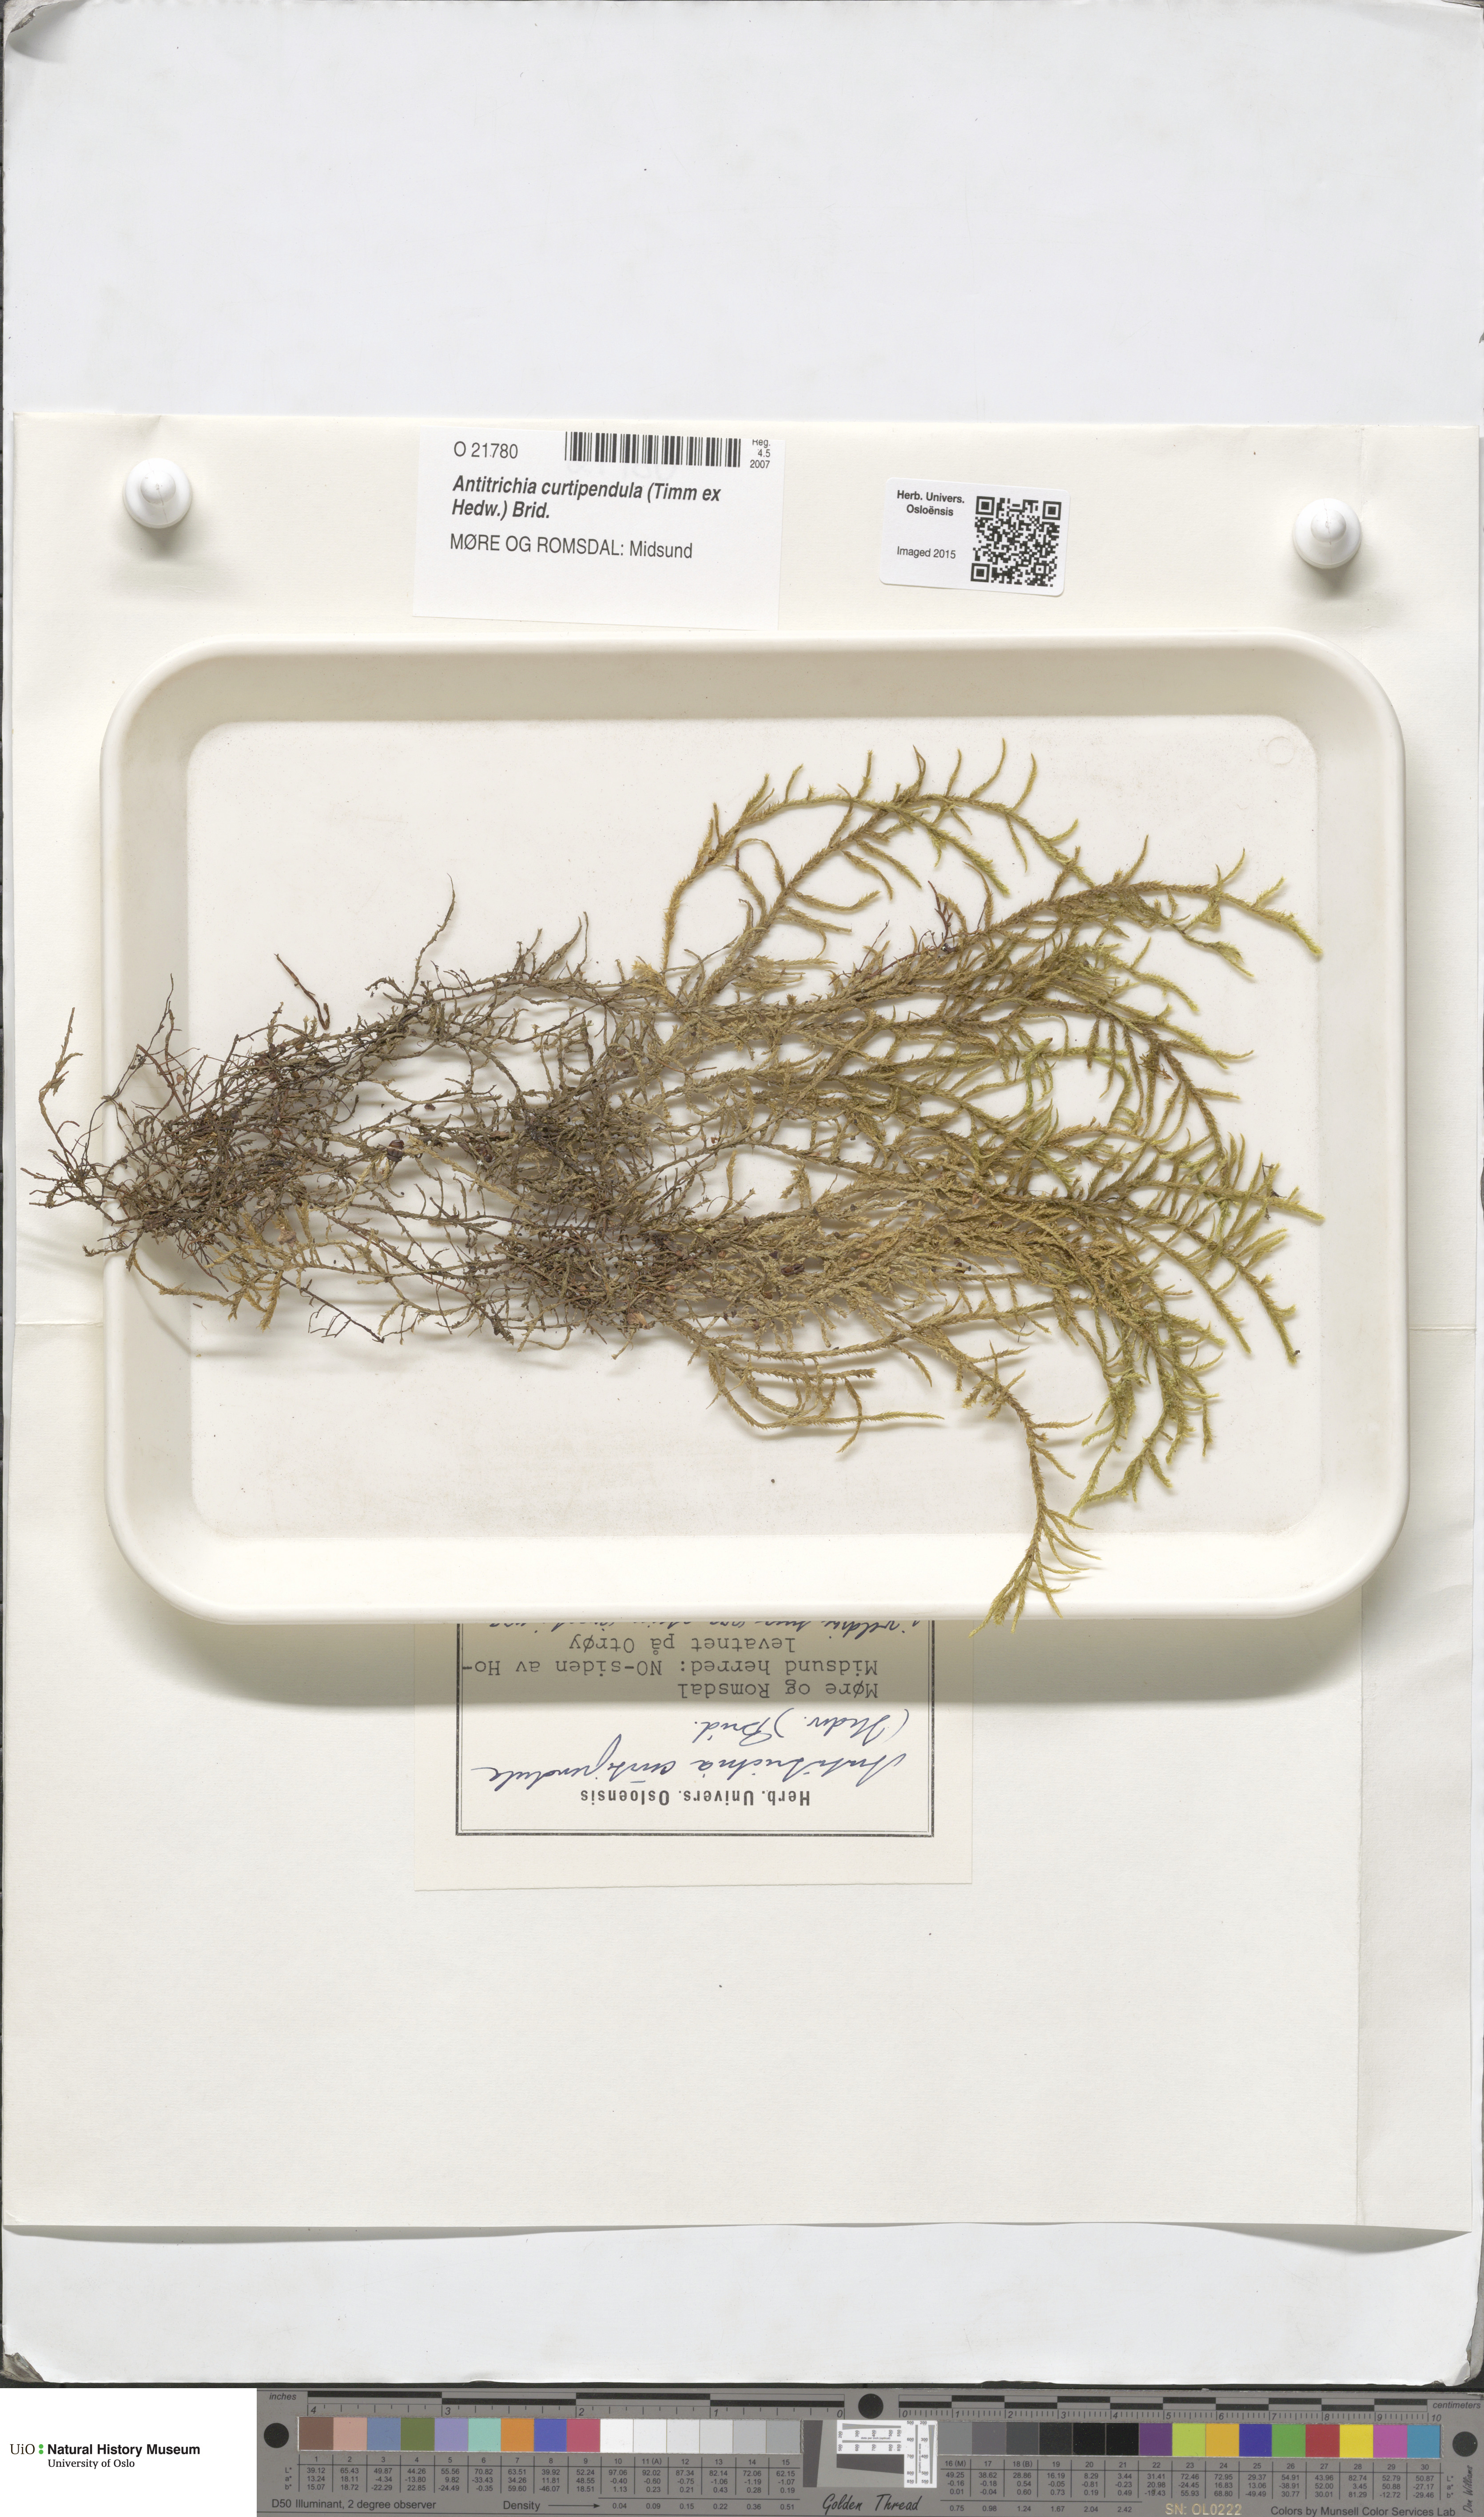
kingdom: Plantae
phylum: Bryophyta
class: Bryopsida
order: Hypnales
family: Antitrichiaceae
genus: Antitrichia
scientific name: Antitrichia curtipendula
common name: Pendulous wing-moss
